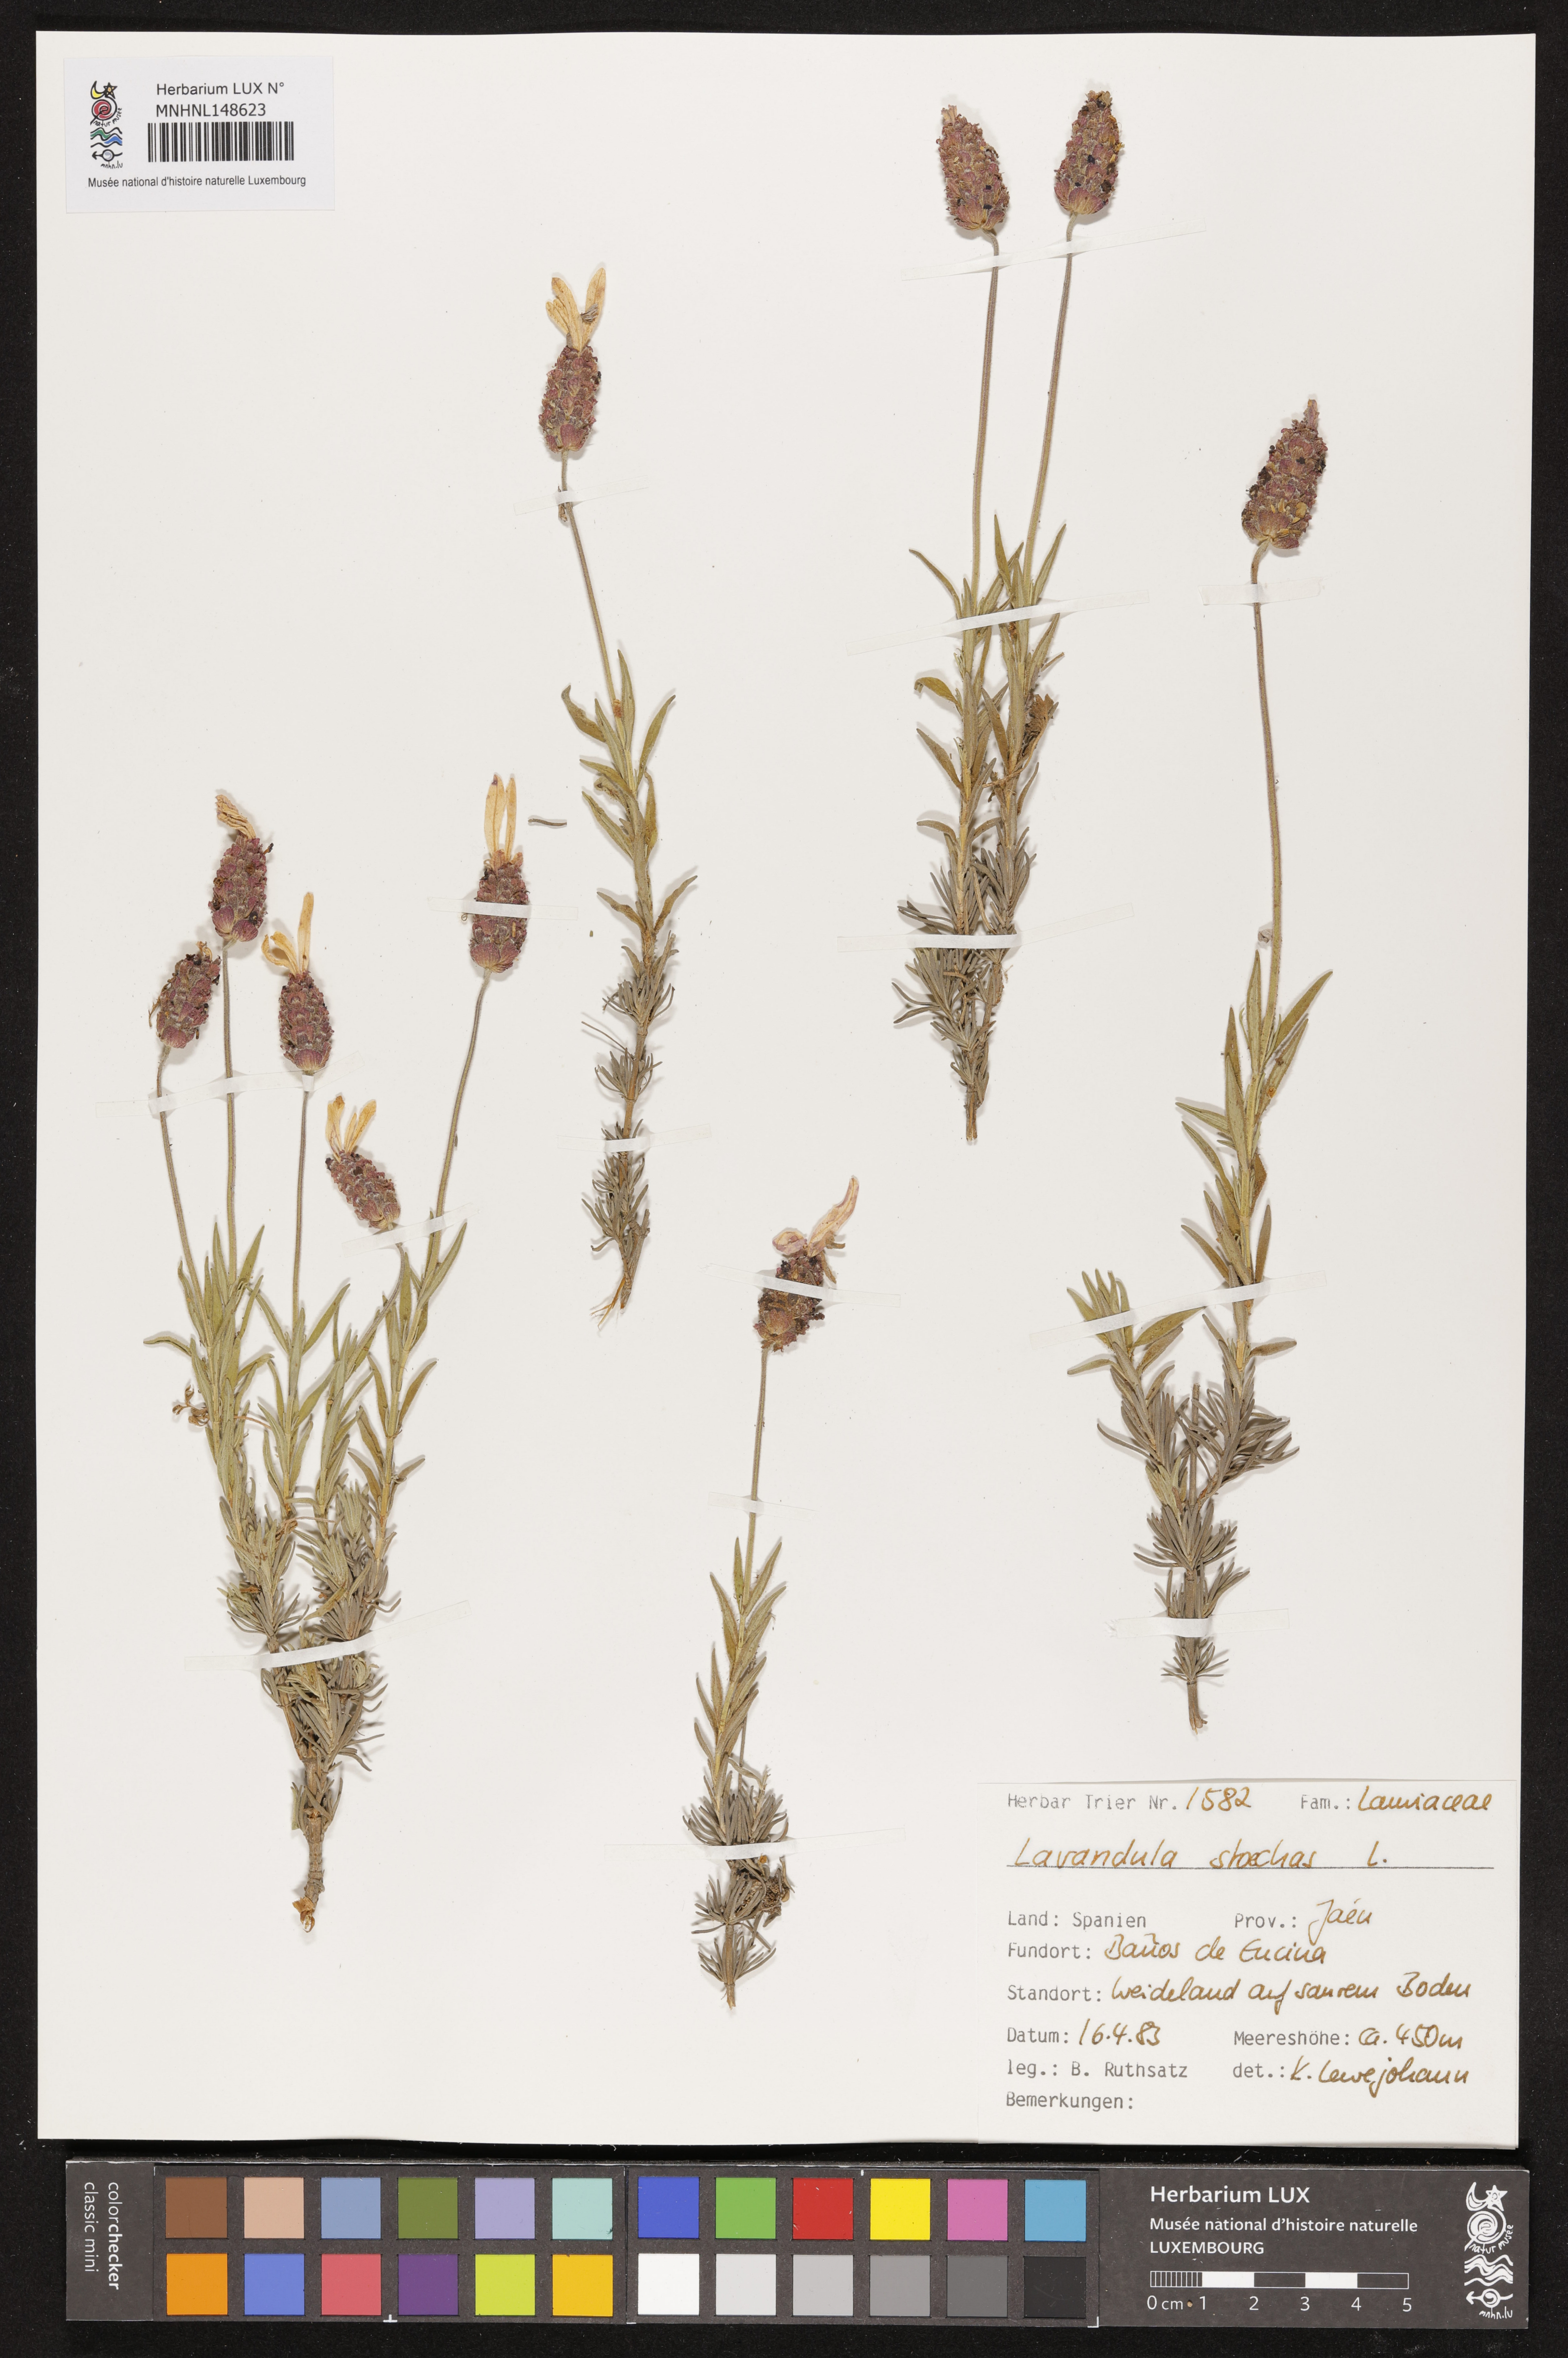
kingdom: Plantae
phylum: Tracheophyta
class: Magnoliopsida
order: Lamiales
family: Lamiaceae
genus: Lavandula
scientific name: Lavandula stoechas
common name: French lavender
